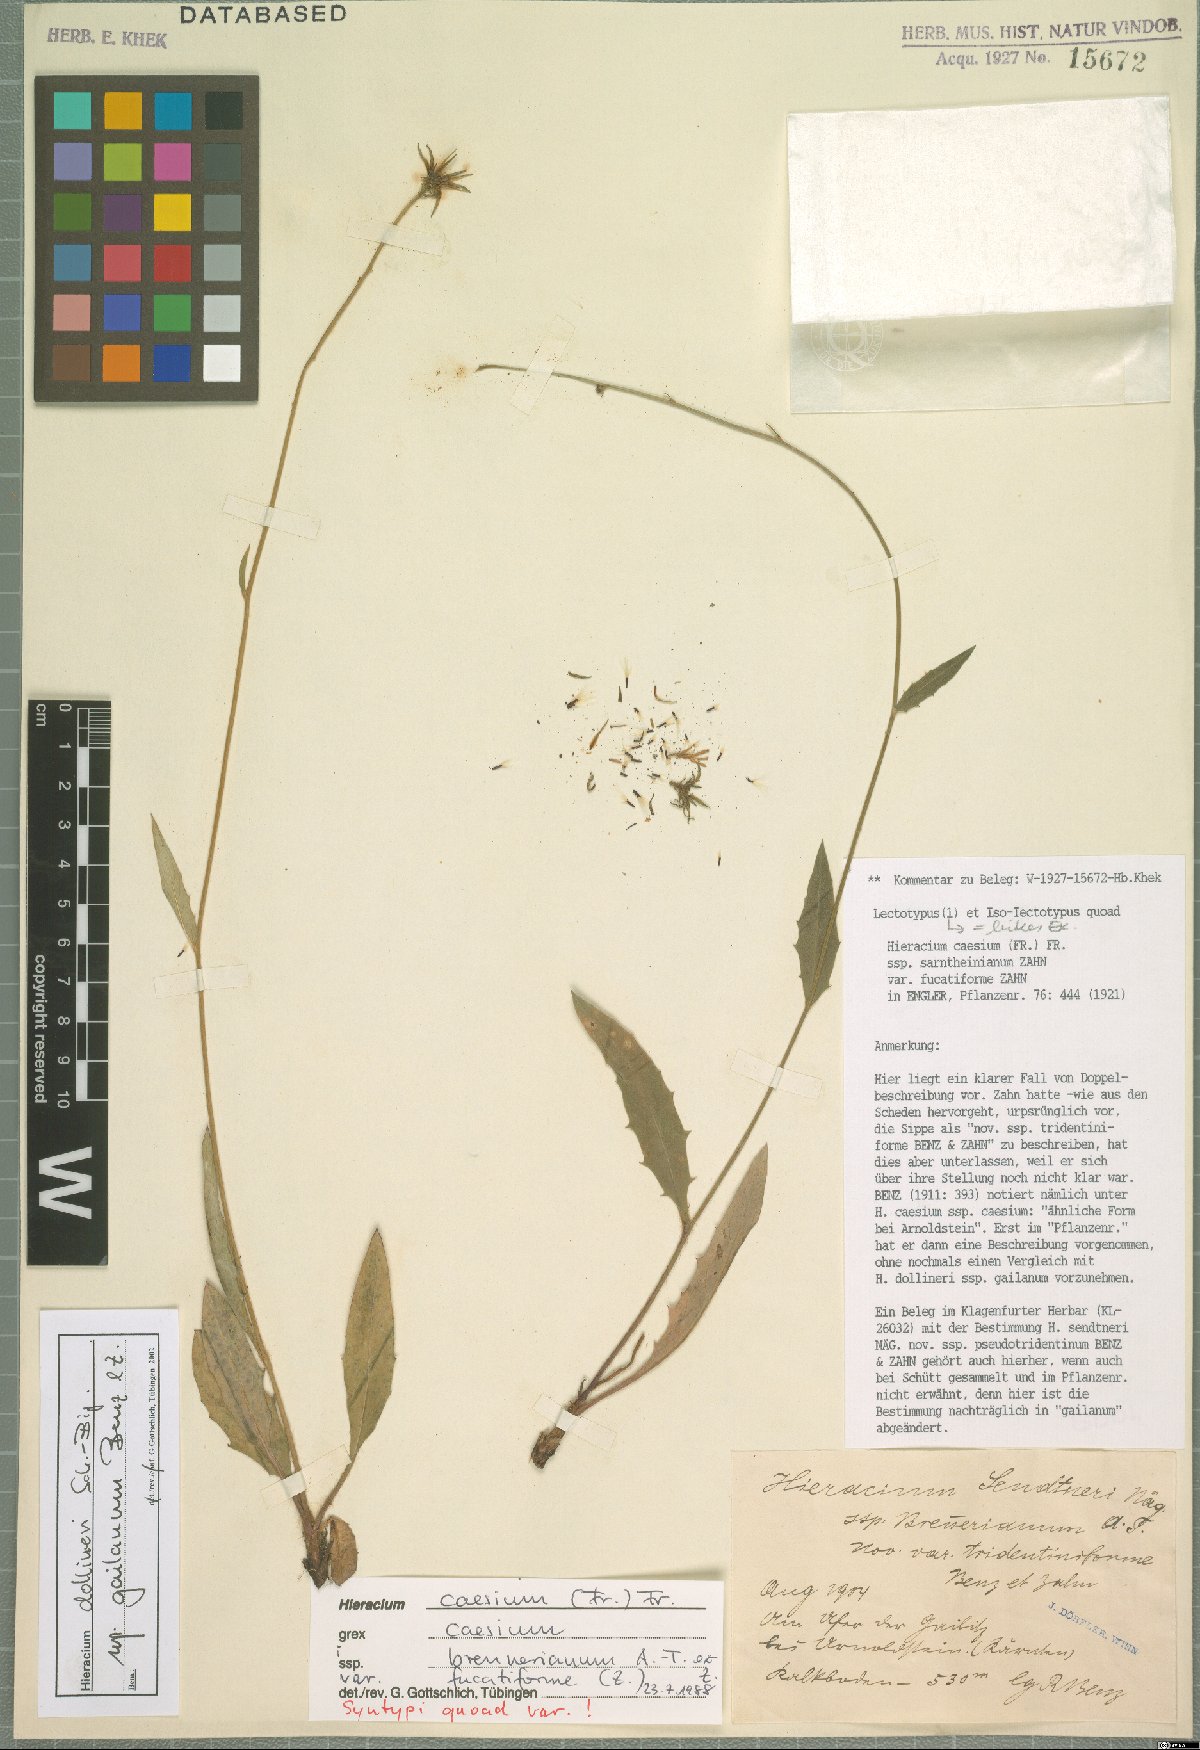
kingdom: Plantae
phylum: Tracheophyta
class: Magnoliopsida
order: Asterales
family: Asteraceae
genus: Hieracium
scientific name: Hieracium dollineri
